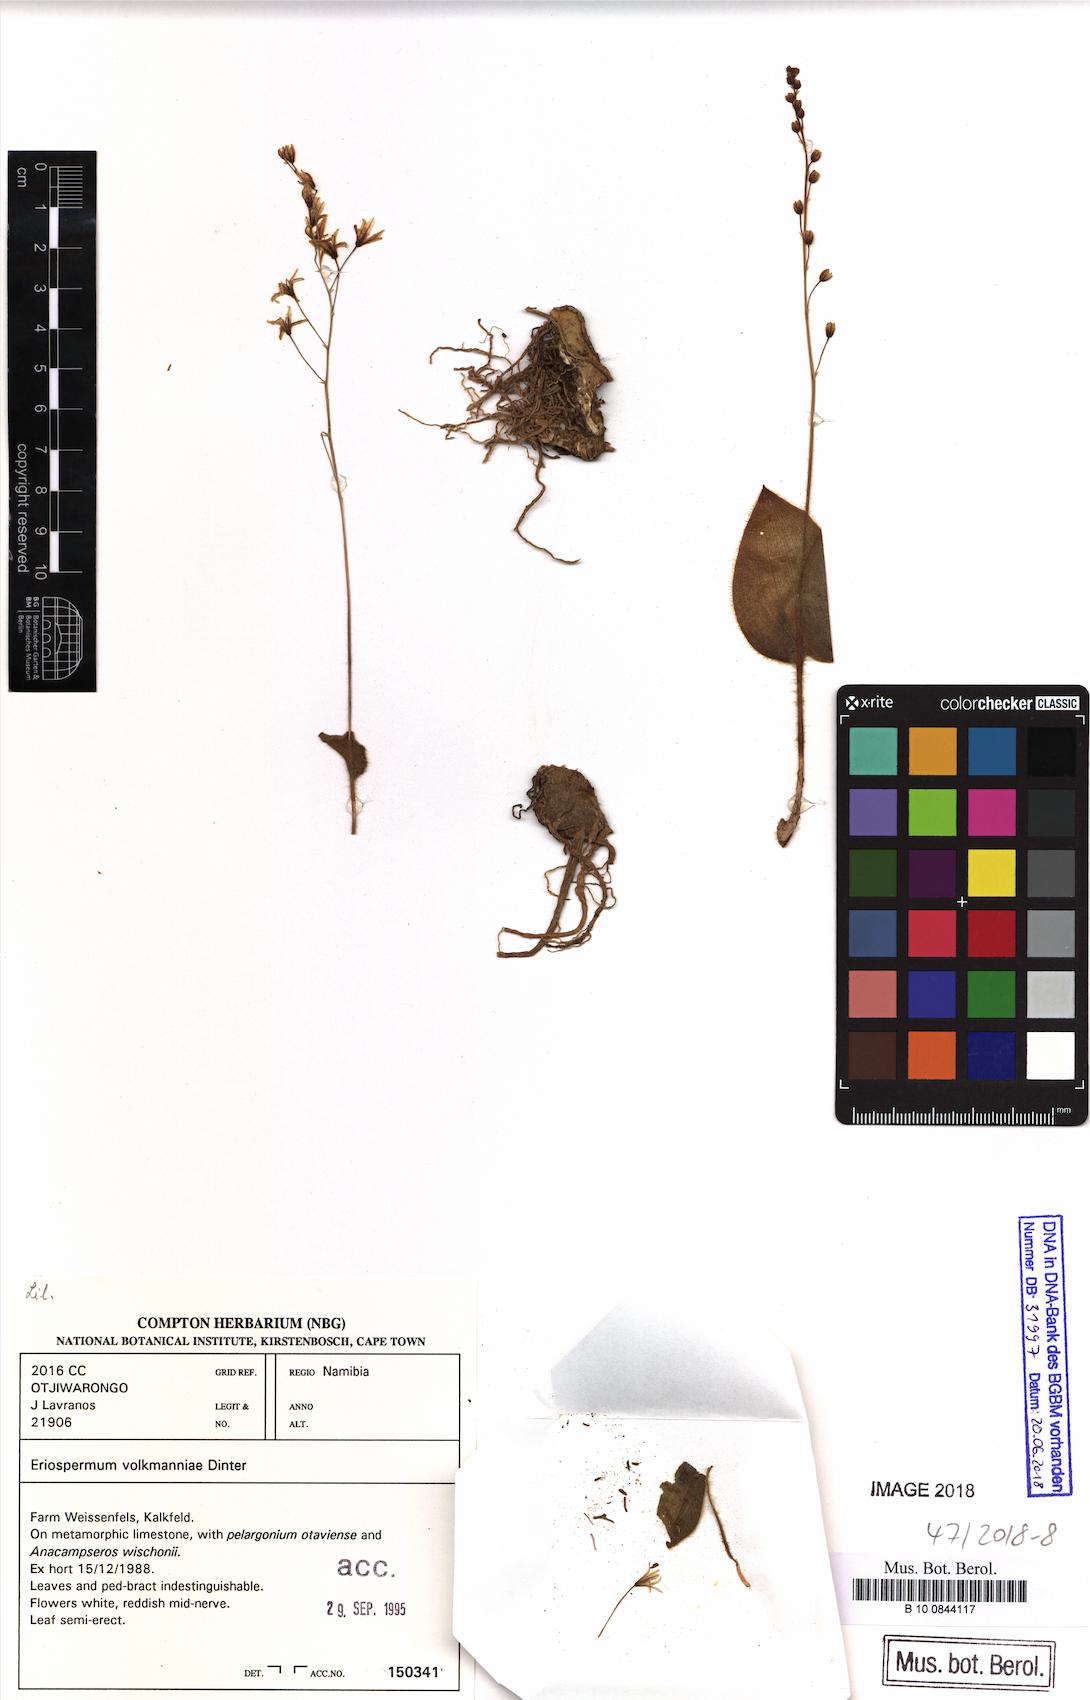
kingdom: Plantae
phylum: Tracheophyta
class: Liliopsida
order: Asparagales
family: Asparagaceae
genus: Eriospermum
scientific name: Eriospermum volkmanniae
